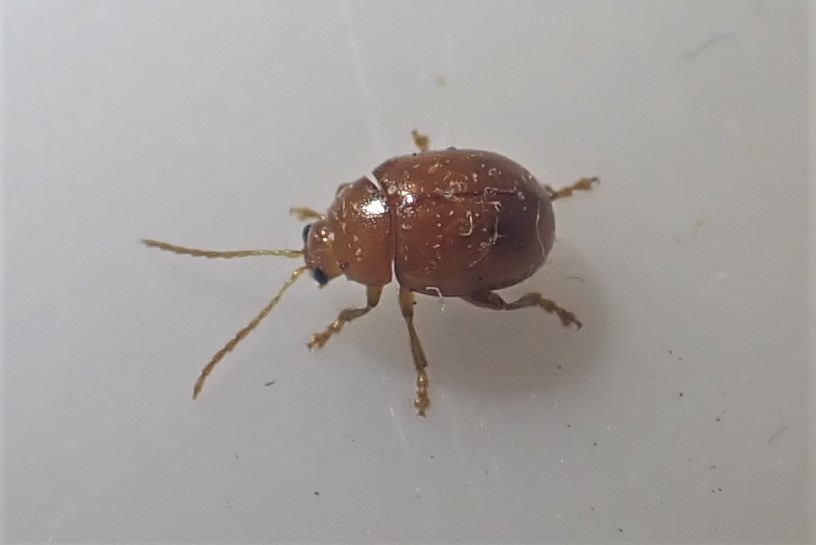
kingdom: Animalia
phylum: Arthropoda
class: Insecta
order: Coleoptera
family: Chrysomelidae
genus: Pistosia
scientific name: Pistosia testacea
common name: Tidselkuglebille
